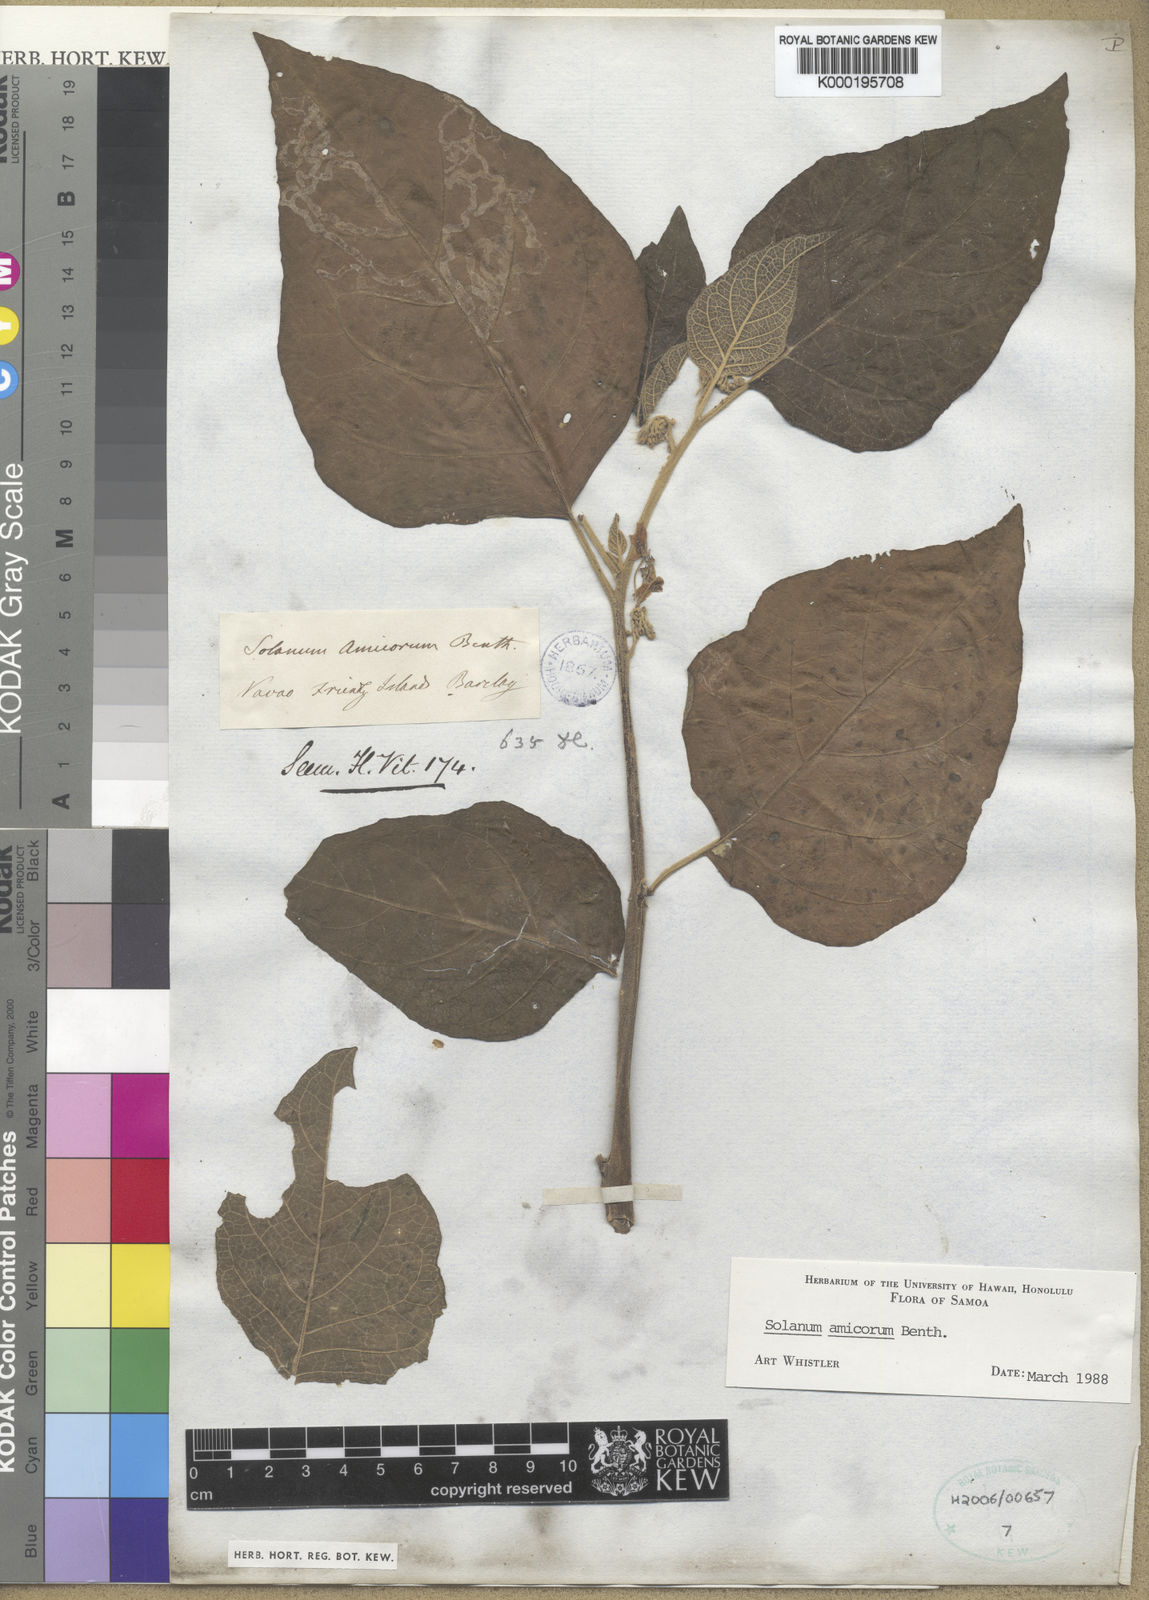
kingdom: Plantae
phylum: Tracheophyta
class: Magnoliopsida
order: Solanales
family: Solanaceae
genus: Solanum
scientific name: Solanum amicorum
